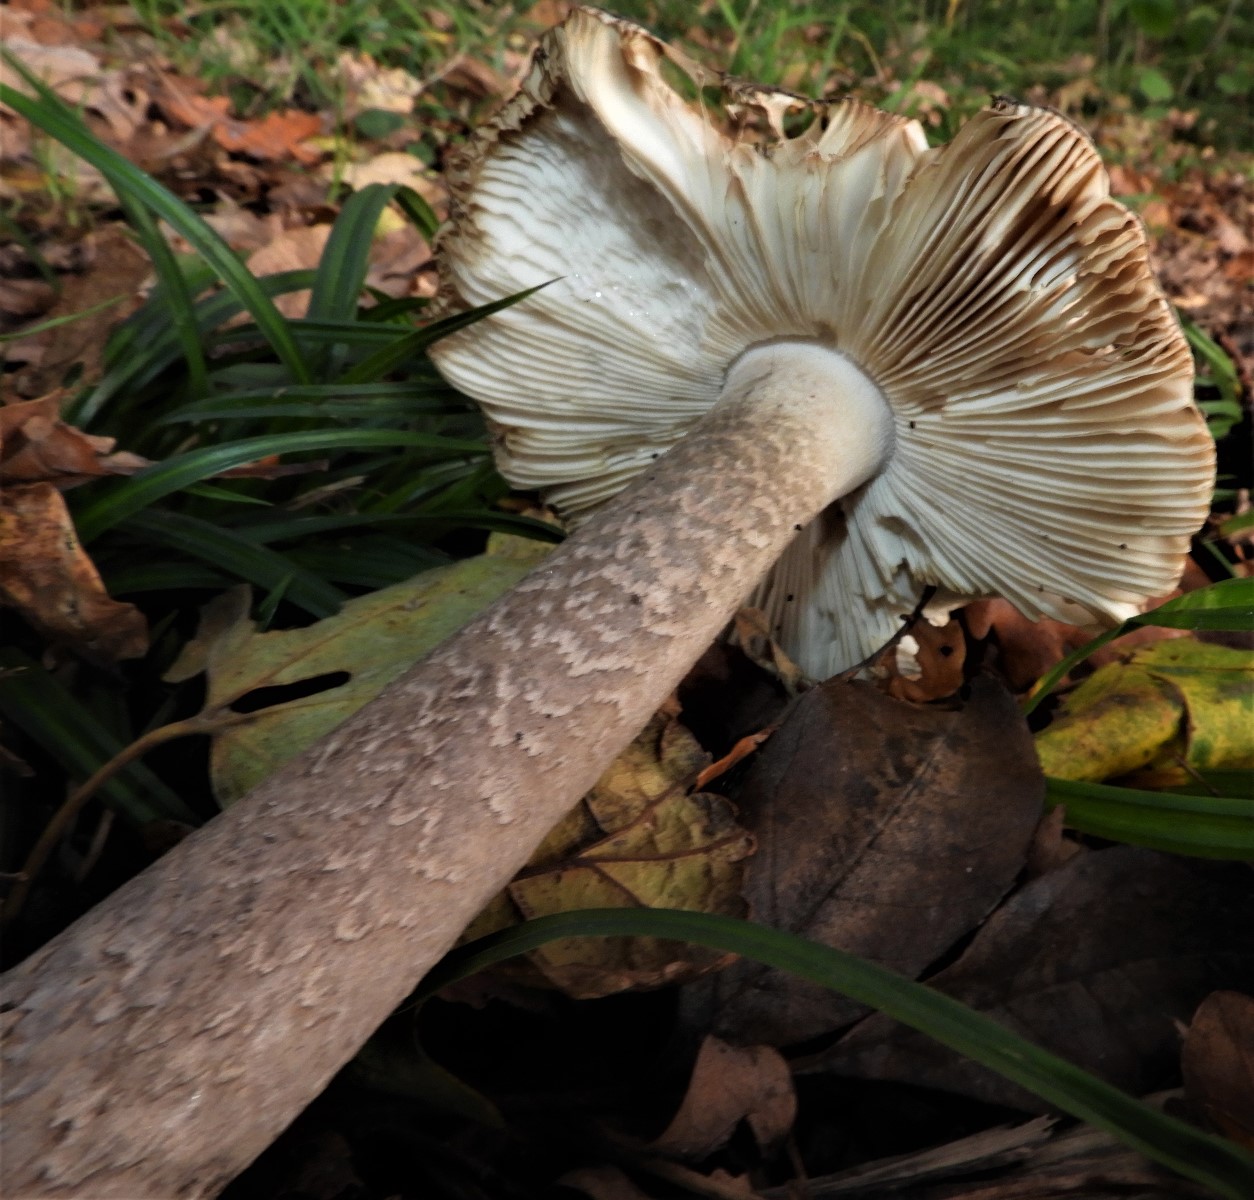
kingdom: Fungi
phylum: Basidiomycota
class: Agaricomycetes
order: Agaricales
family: Amanitaceae
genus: Amanita
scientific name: Amanita ceciliae
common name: stor kam-fluesvamp
